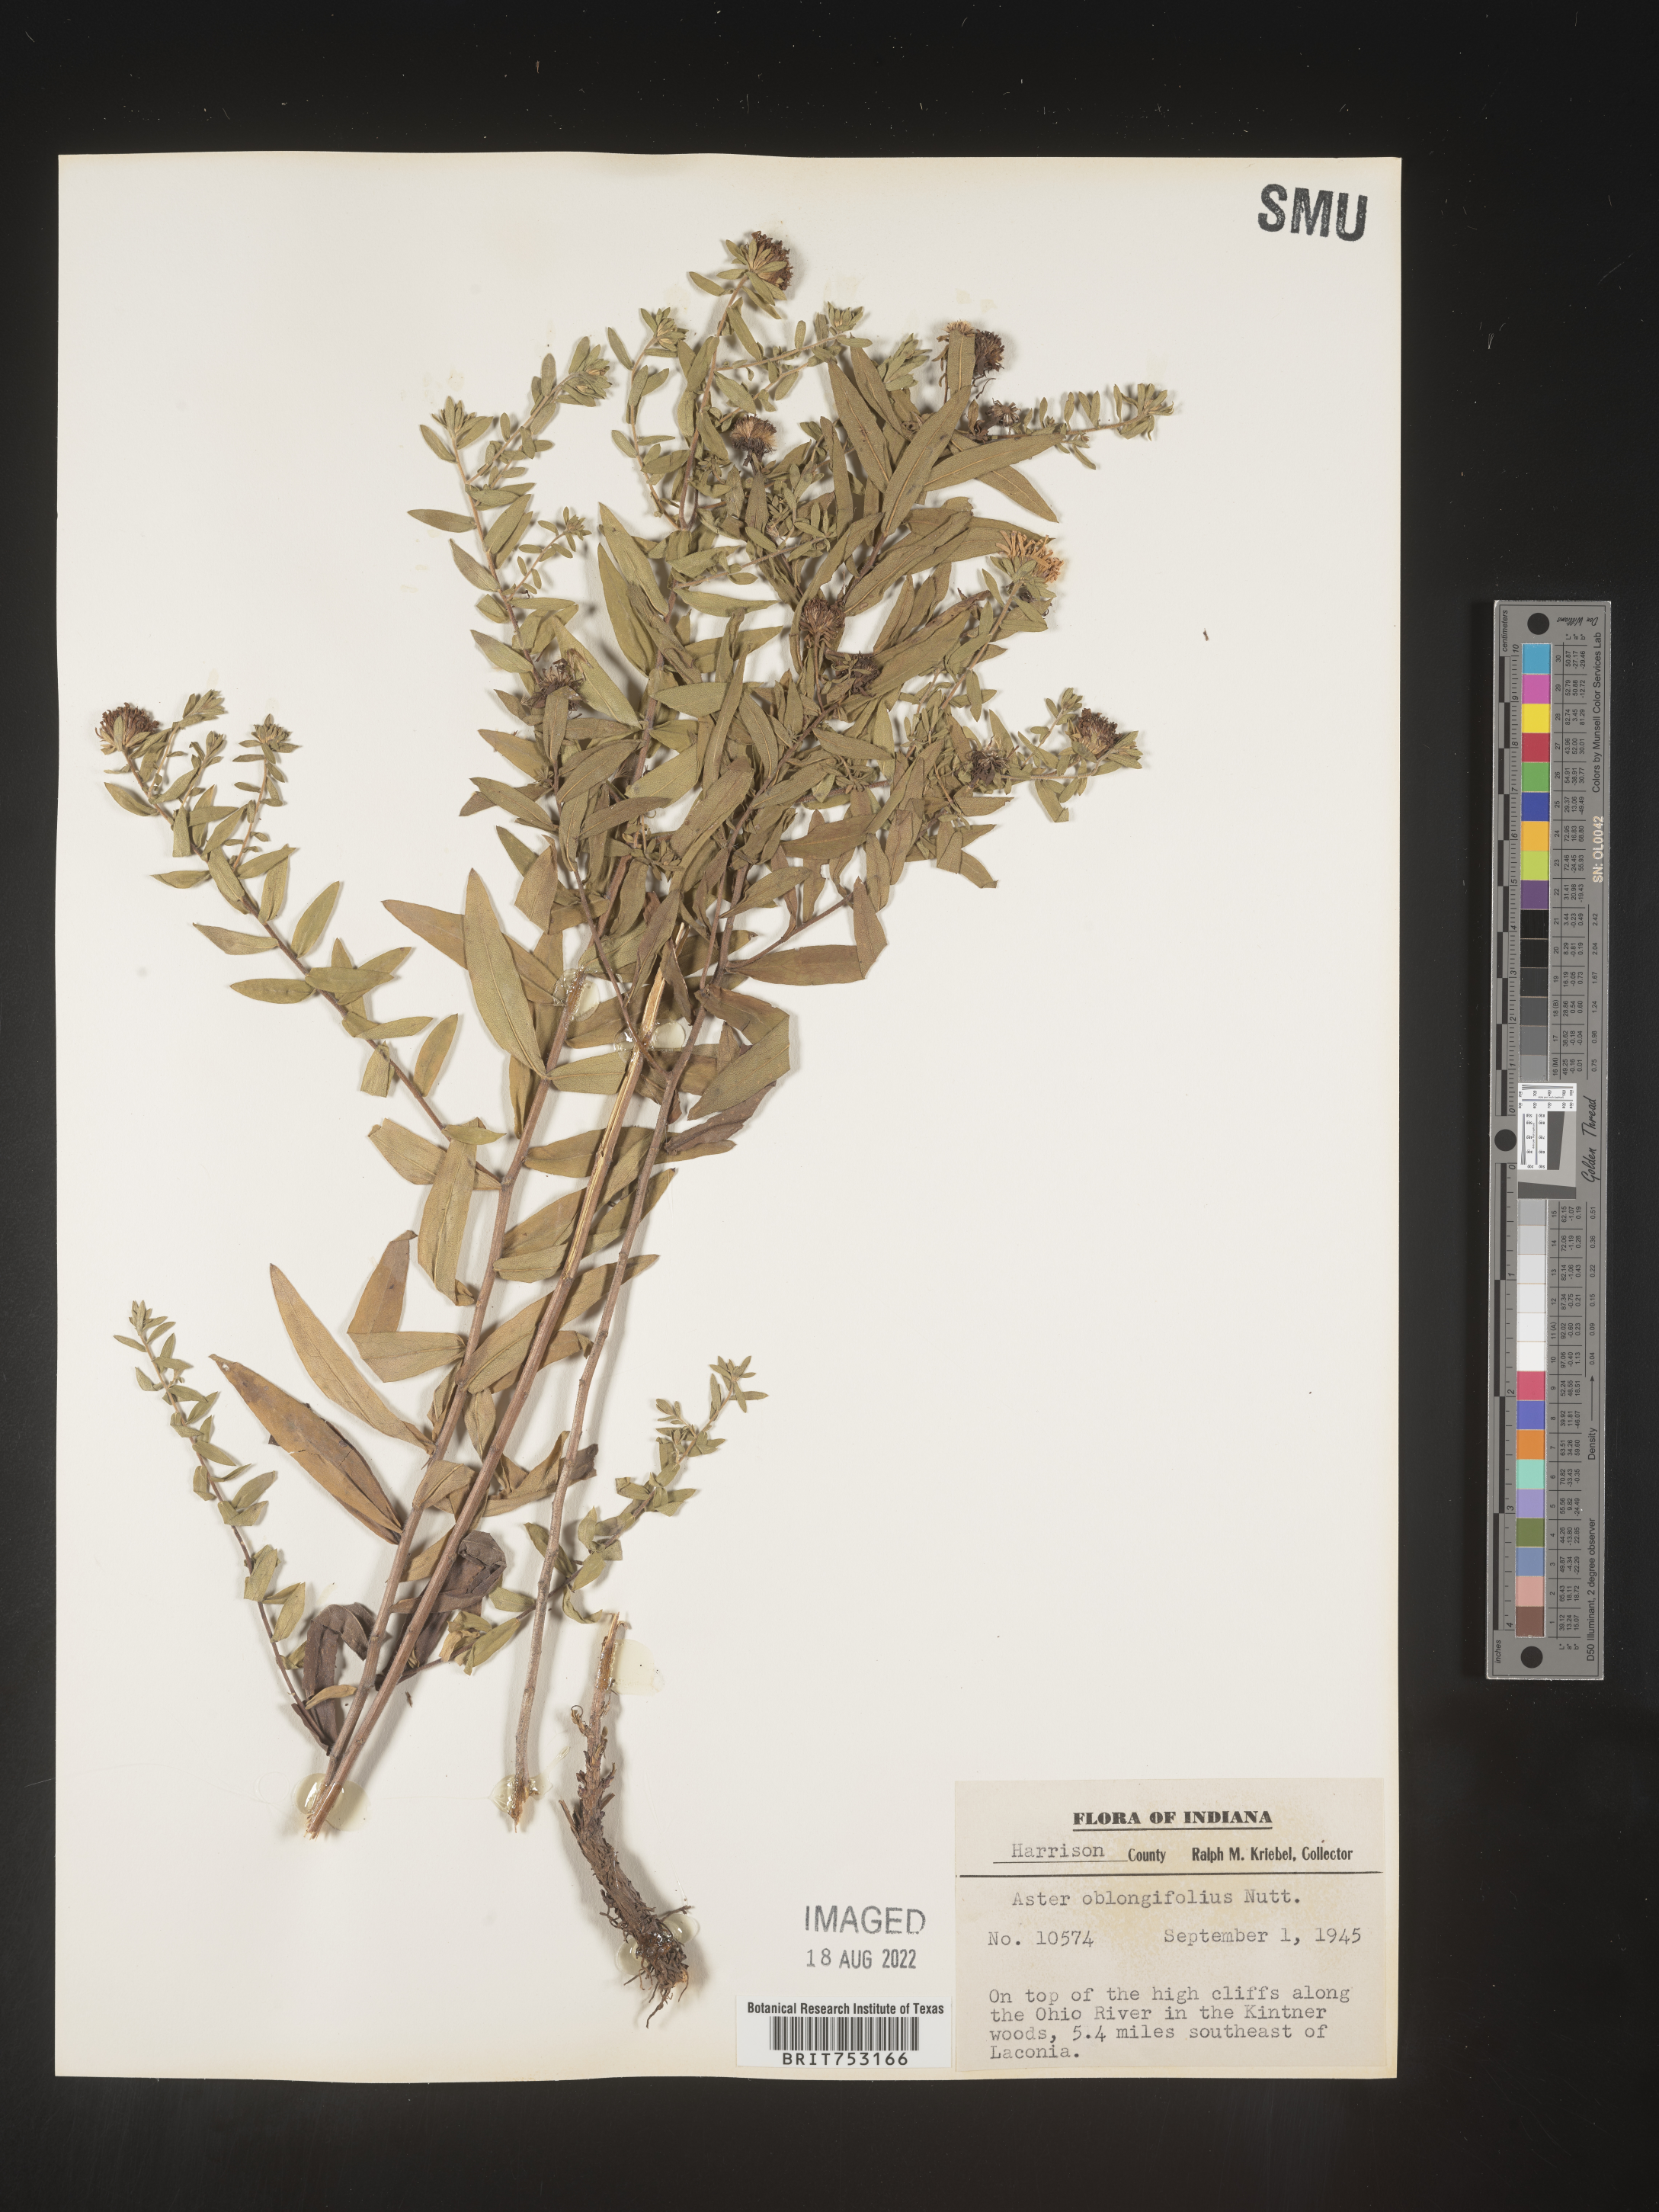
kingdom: Plantae
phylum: Tracheophyta
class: Magnoliopsida
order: Asterales
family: Asteraceae
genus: Symphyotrichum
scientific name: Symphyotrichum oblongifolium
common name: Aromatic aster
